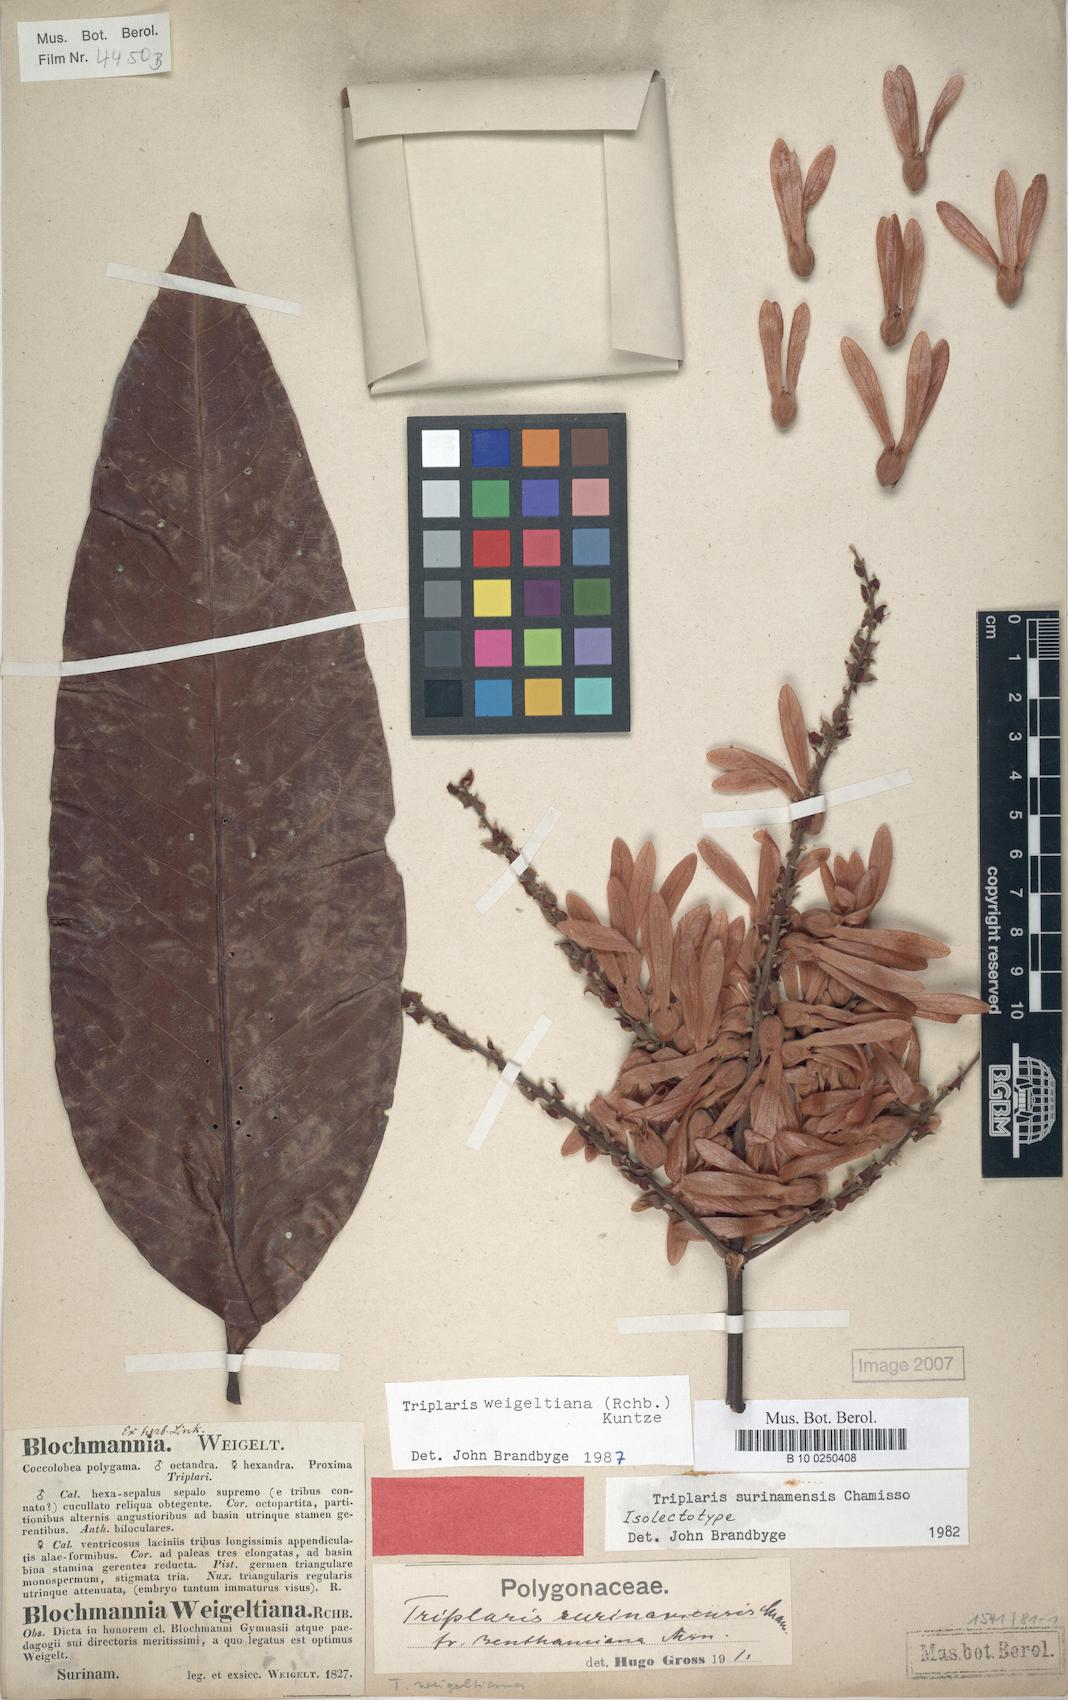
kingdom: Plantae
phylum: Tracheophyta
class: Magnoliopsida
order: Caryophyllales
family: Polygonaceae
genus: Triplaris
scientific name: Triplaris weigeltiana
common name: Long john
